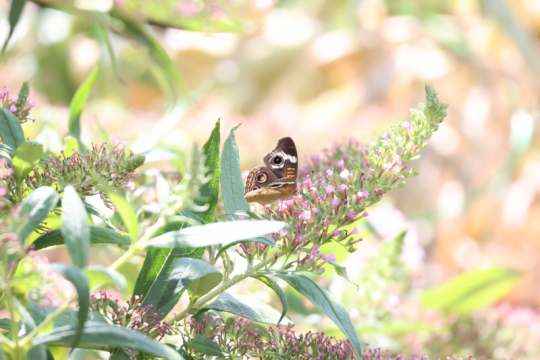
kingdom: Animalia
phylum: Arthropoda
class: Insecta
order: Lepidoptera
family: Nymphalidae
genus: Junonia
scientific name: Junonia coenia
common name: Common Buckeye
